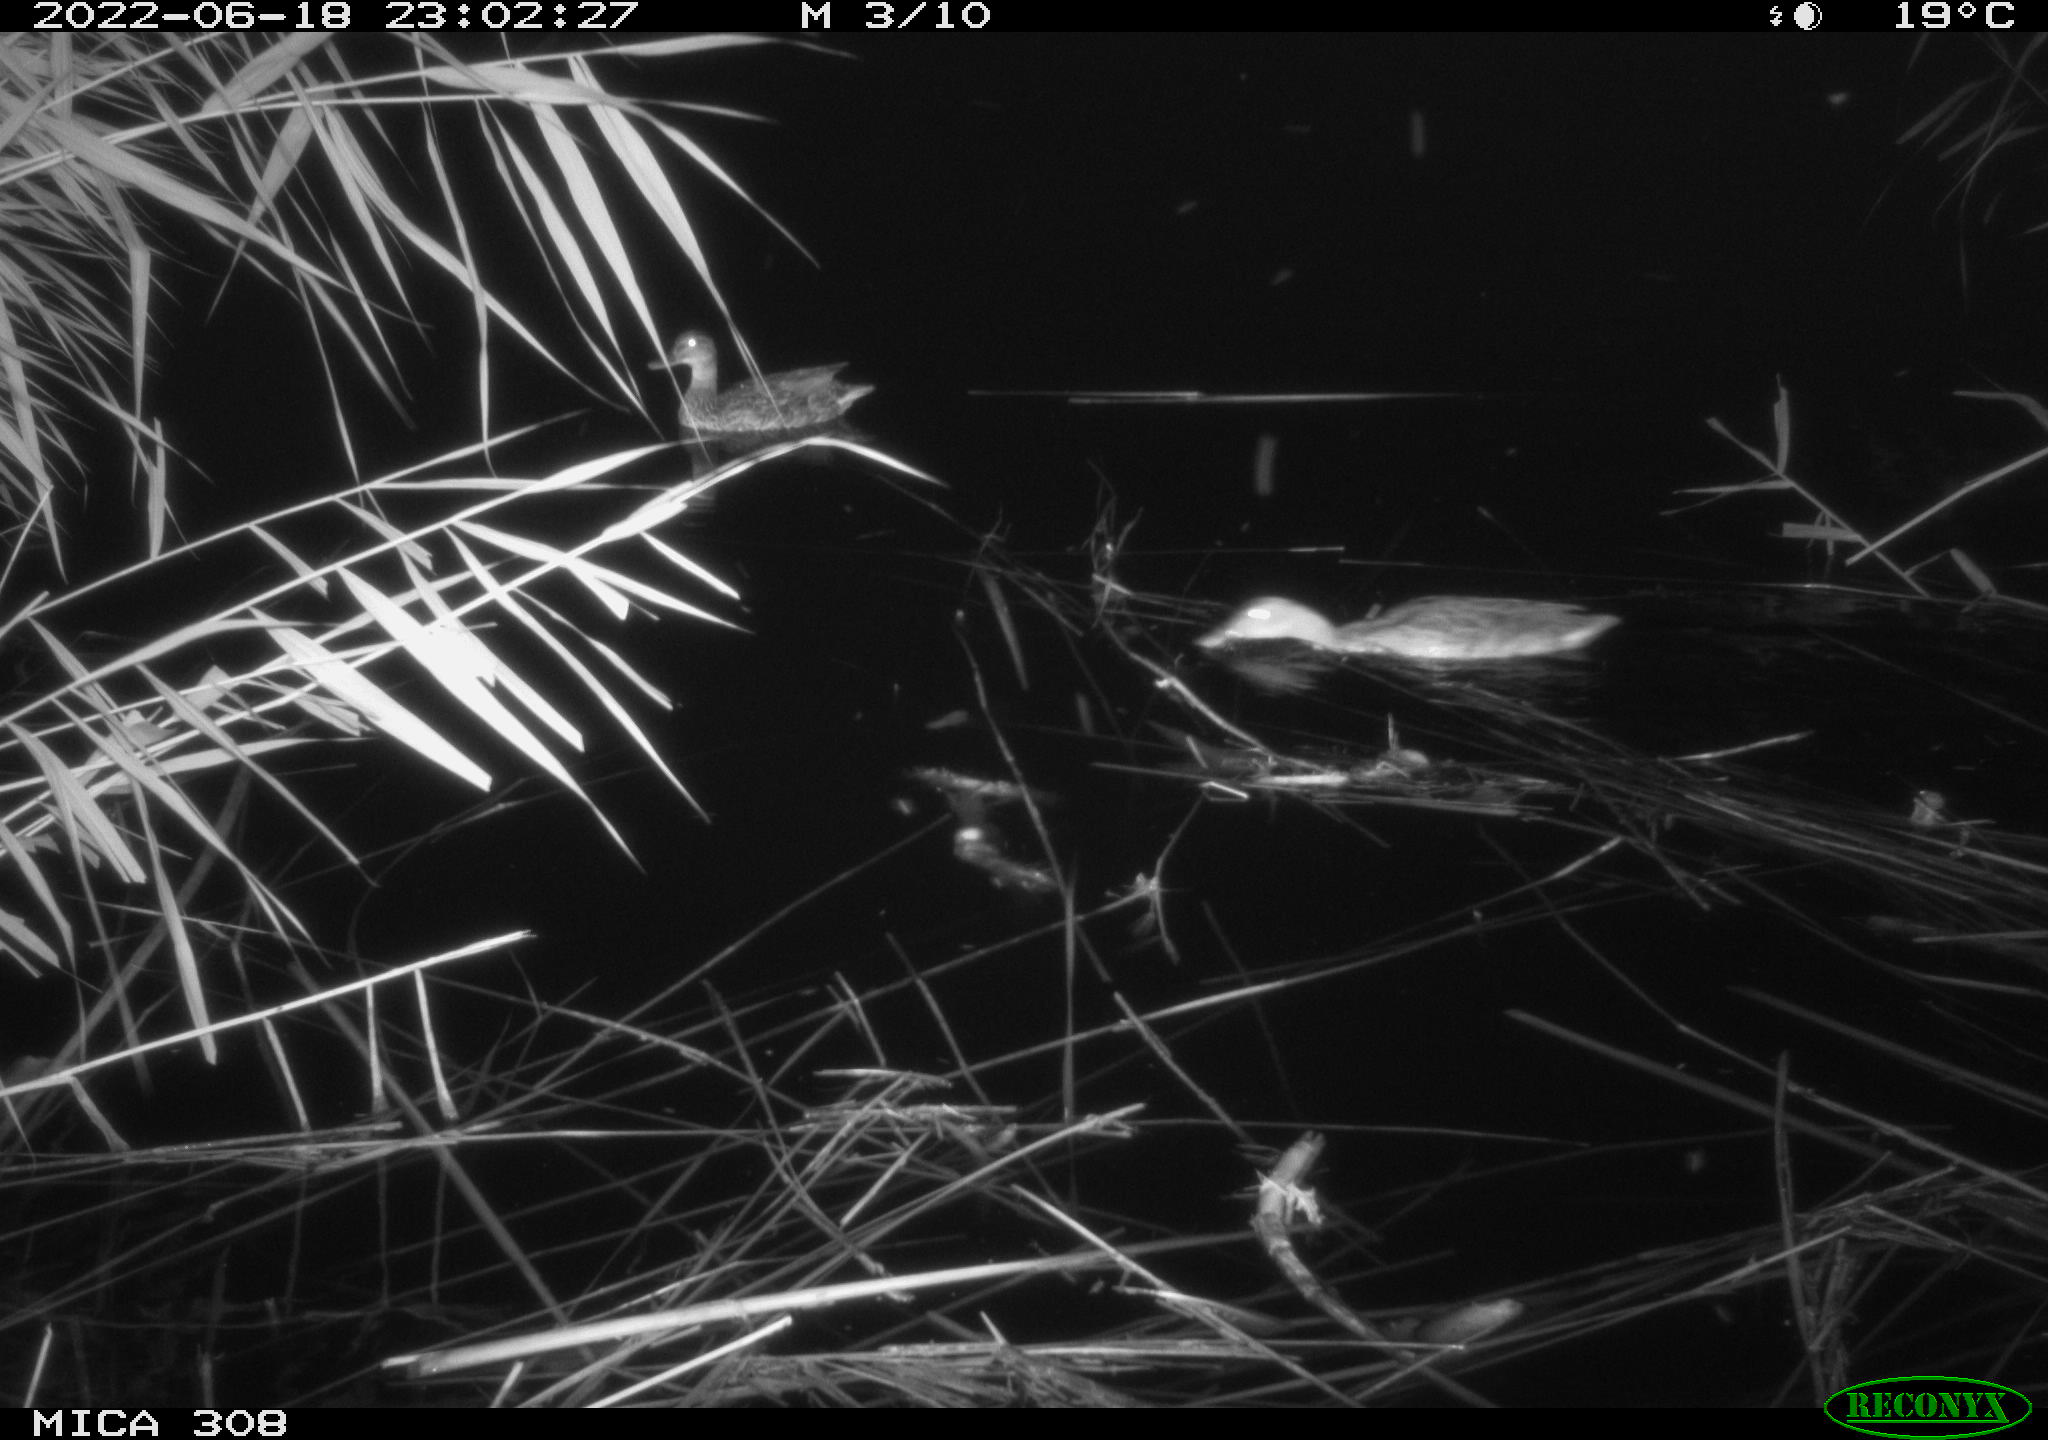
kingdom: Animalia
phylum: Chordata
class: Aves
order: Anseriformes
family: Anatidae
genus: Anas
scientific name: Anas platyrhynchos
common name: Mallard
